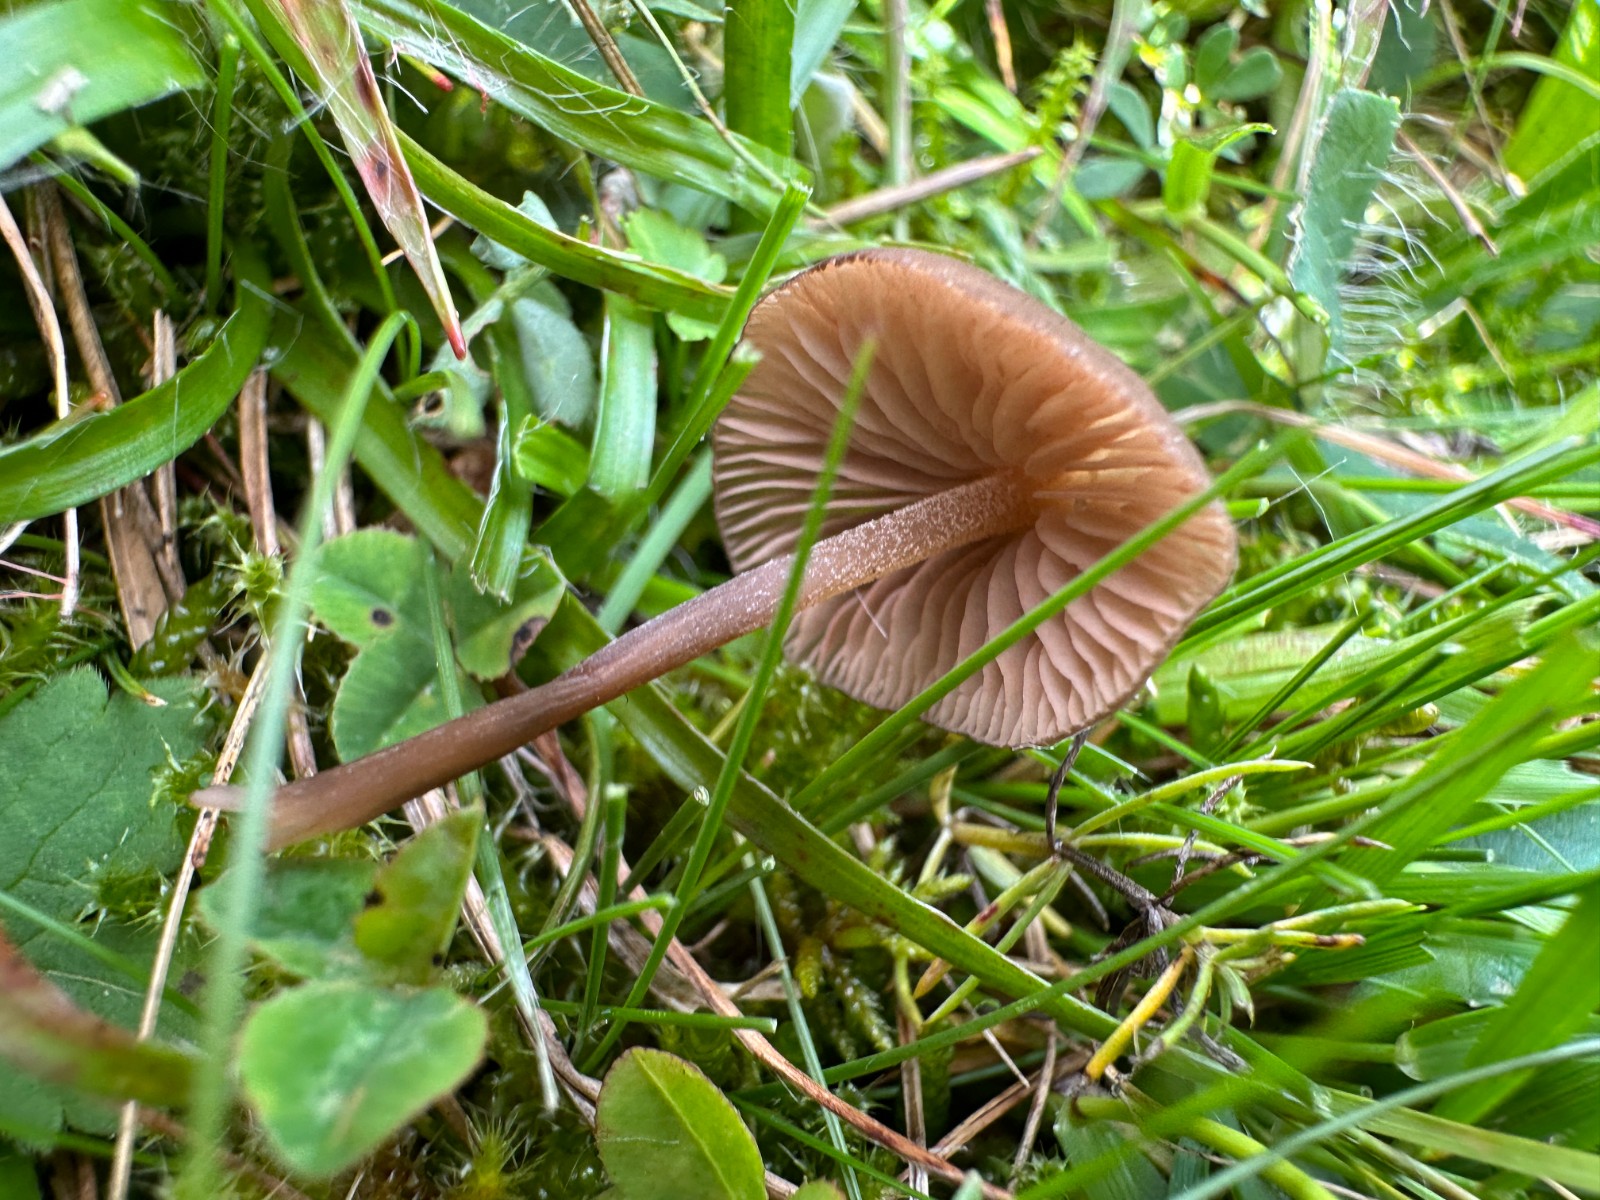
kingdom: Fungi
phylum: Basidiomycota
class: Agaricomycetes
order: Agaricales
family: Entolomataceae
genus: Entoloma
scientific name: Entoloma clandestinum
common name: tykbladet rødblad
